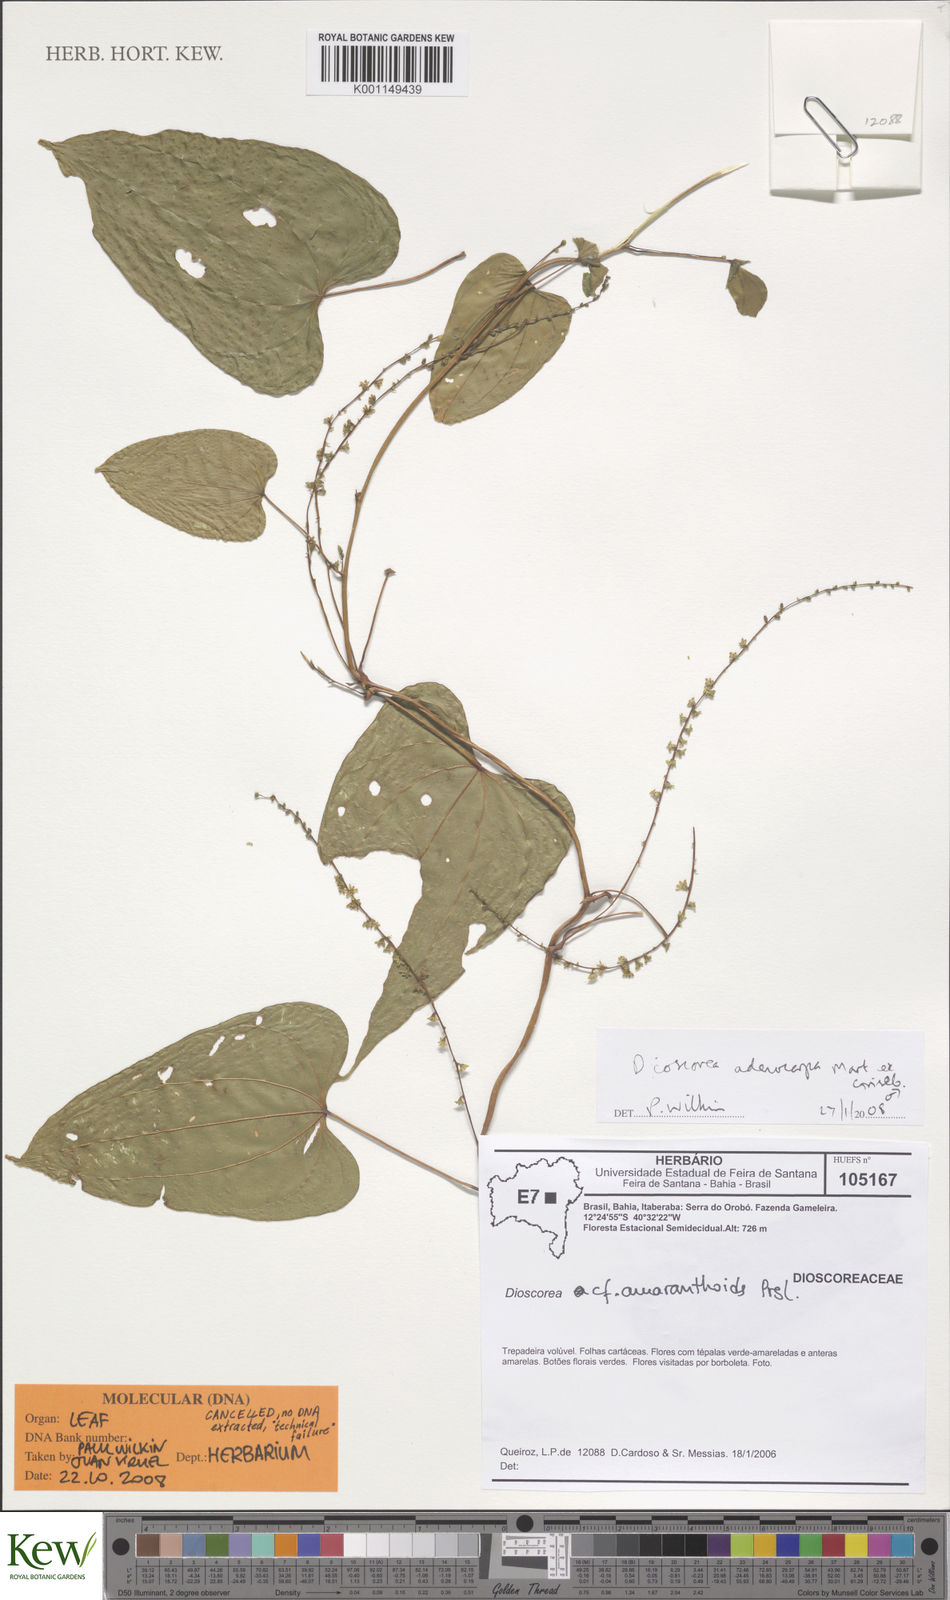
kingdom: Plantae
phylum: Tracheophyta
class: Liliopsida
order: Dioscoreales
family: Dioscoreaceae
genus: Dioscorea
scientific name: Dioscorea chondrocarpa
